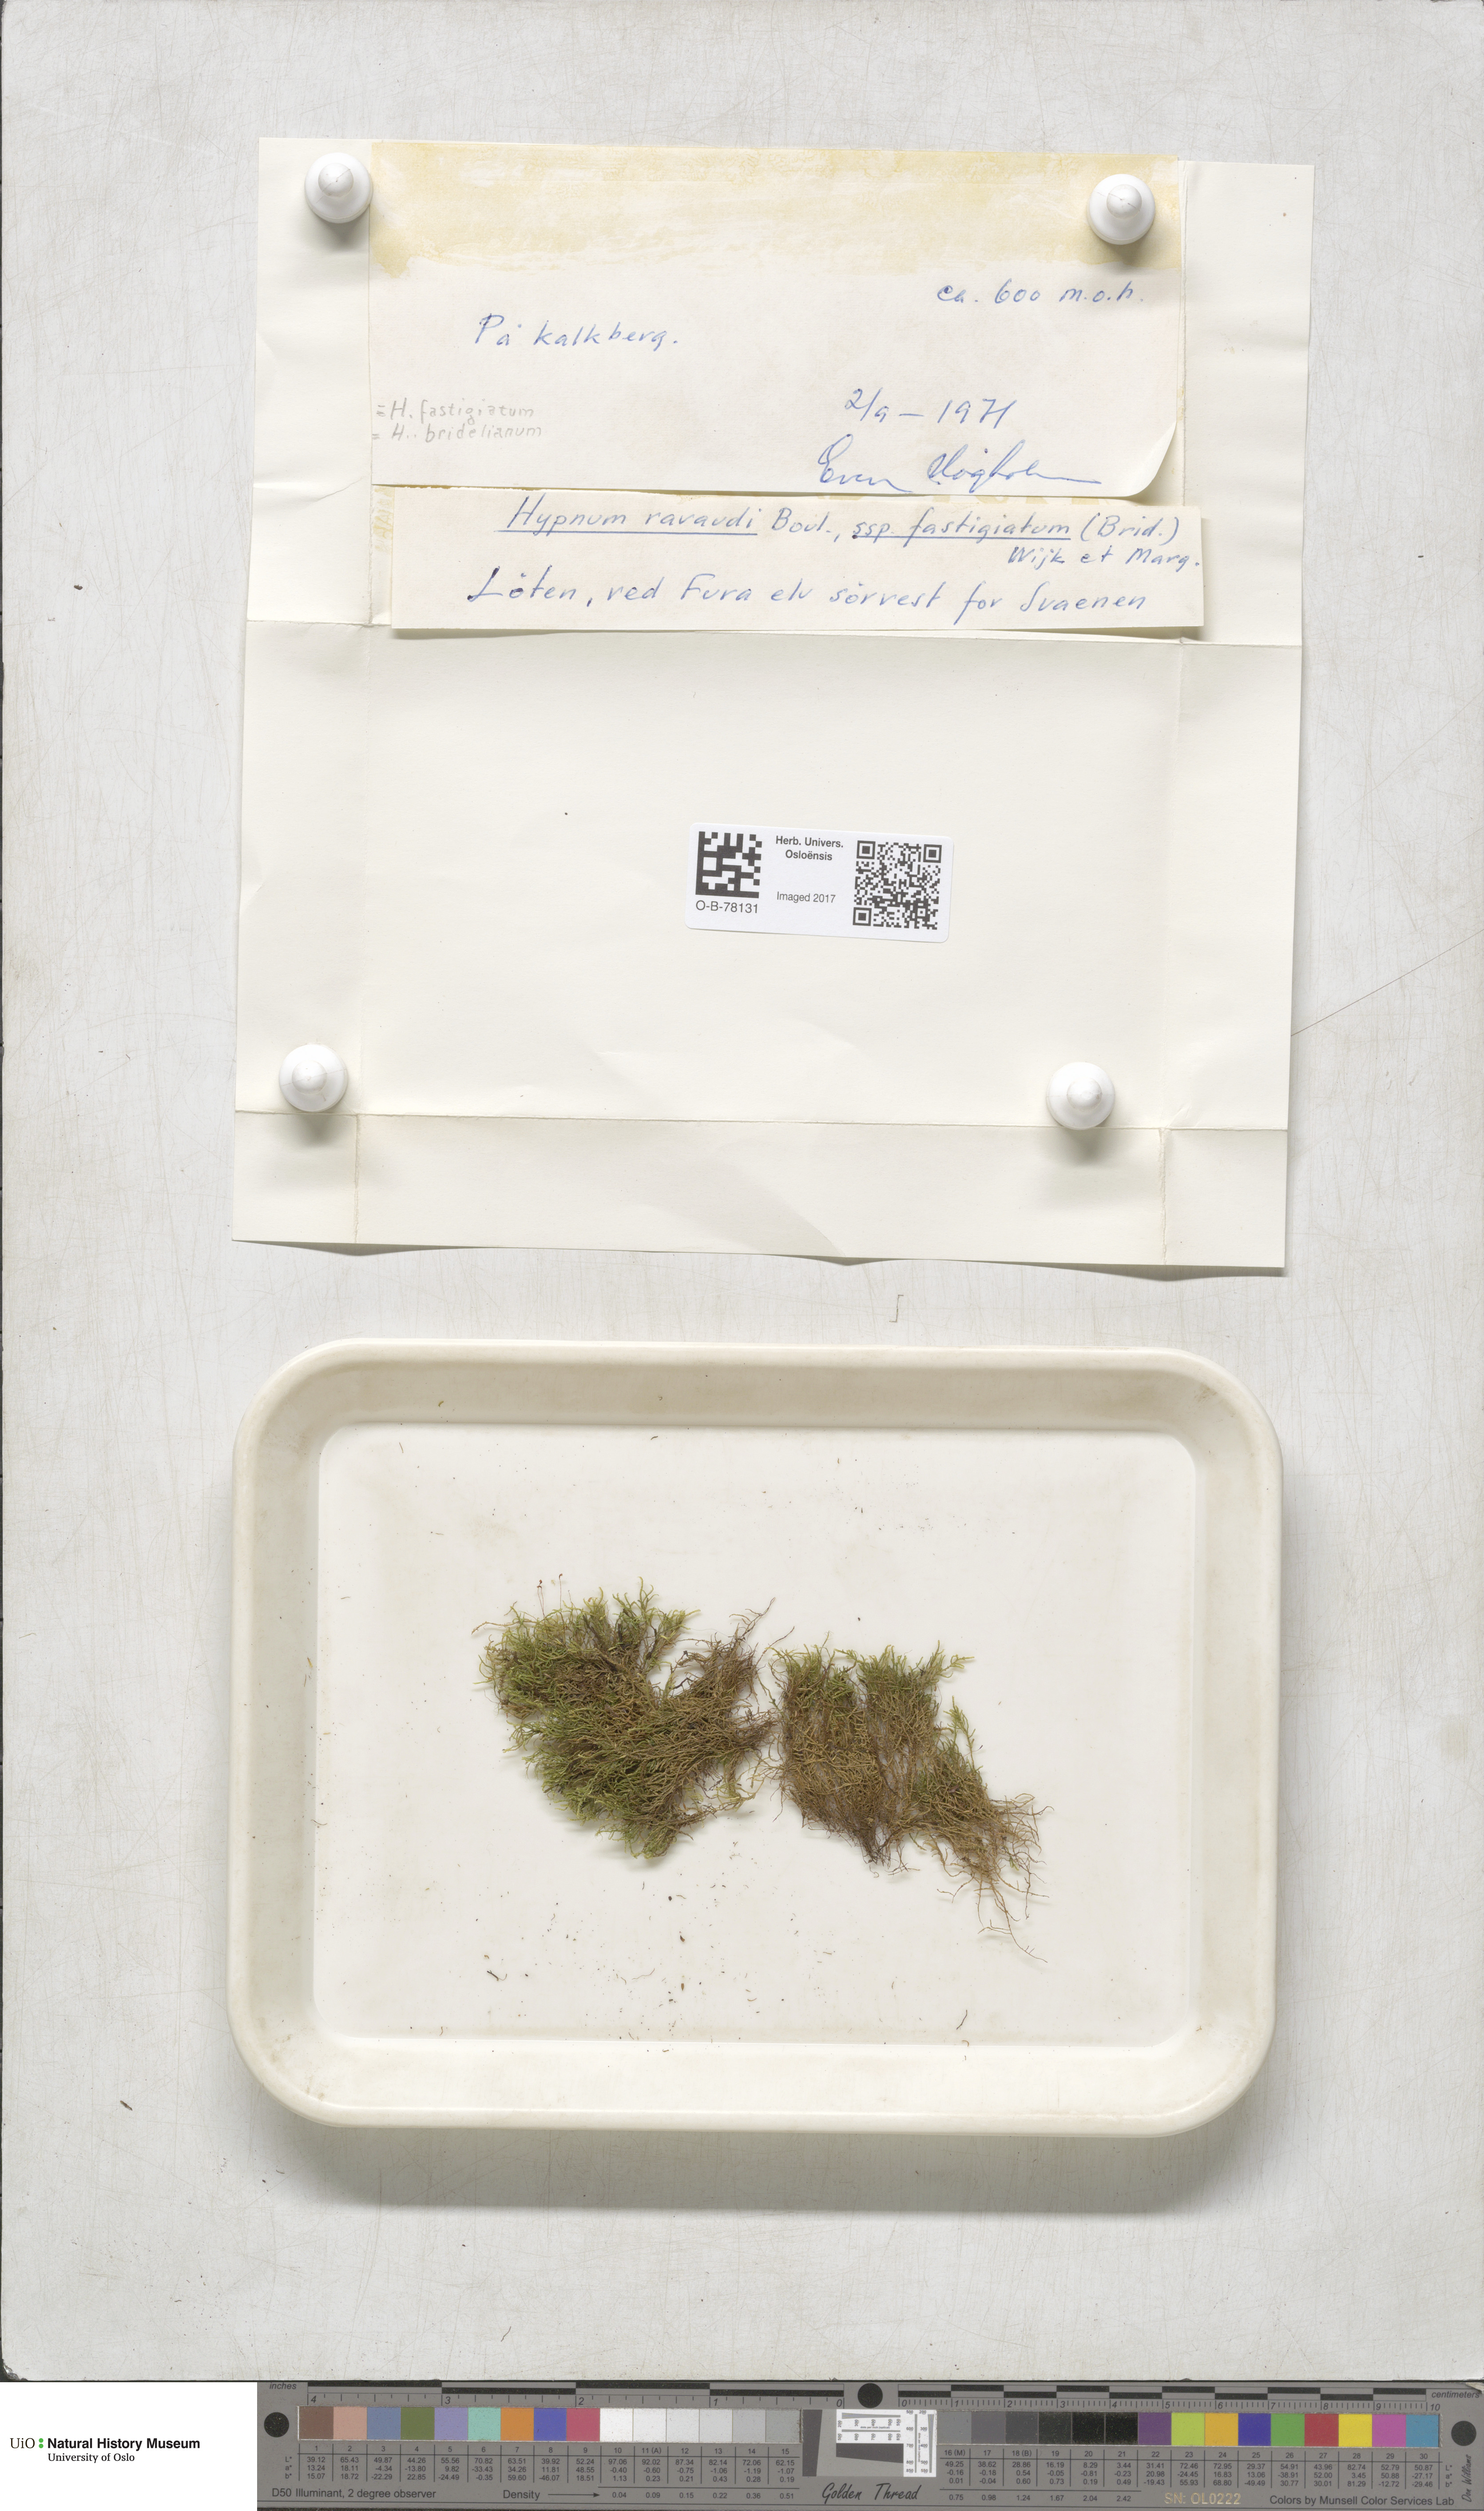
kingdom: Plantae
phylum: Bryophyta
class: Bryopsida
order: Hypnales
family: Amblystegiaceae
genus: Drepanium
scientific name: Drepanium fastigiatum
